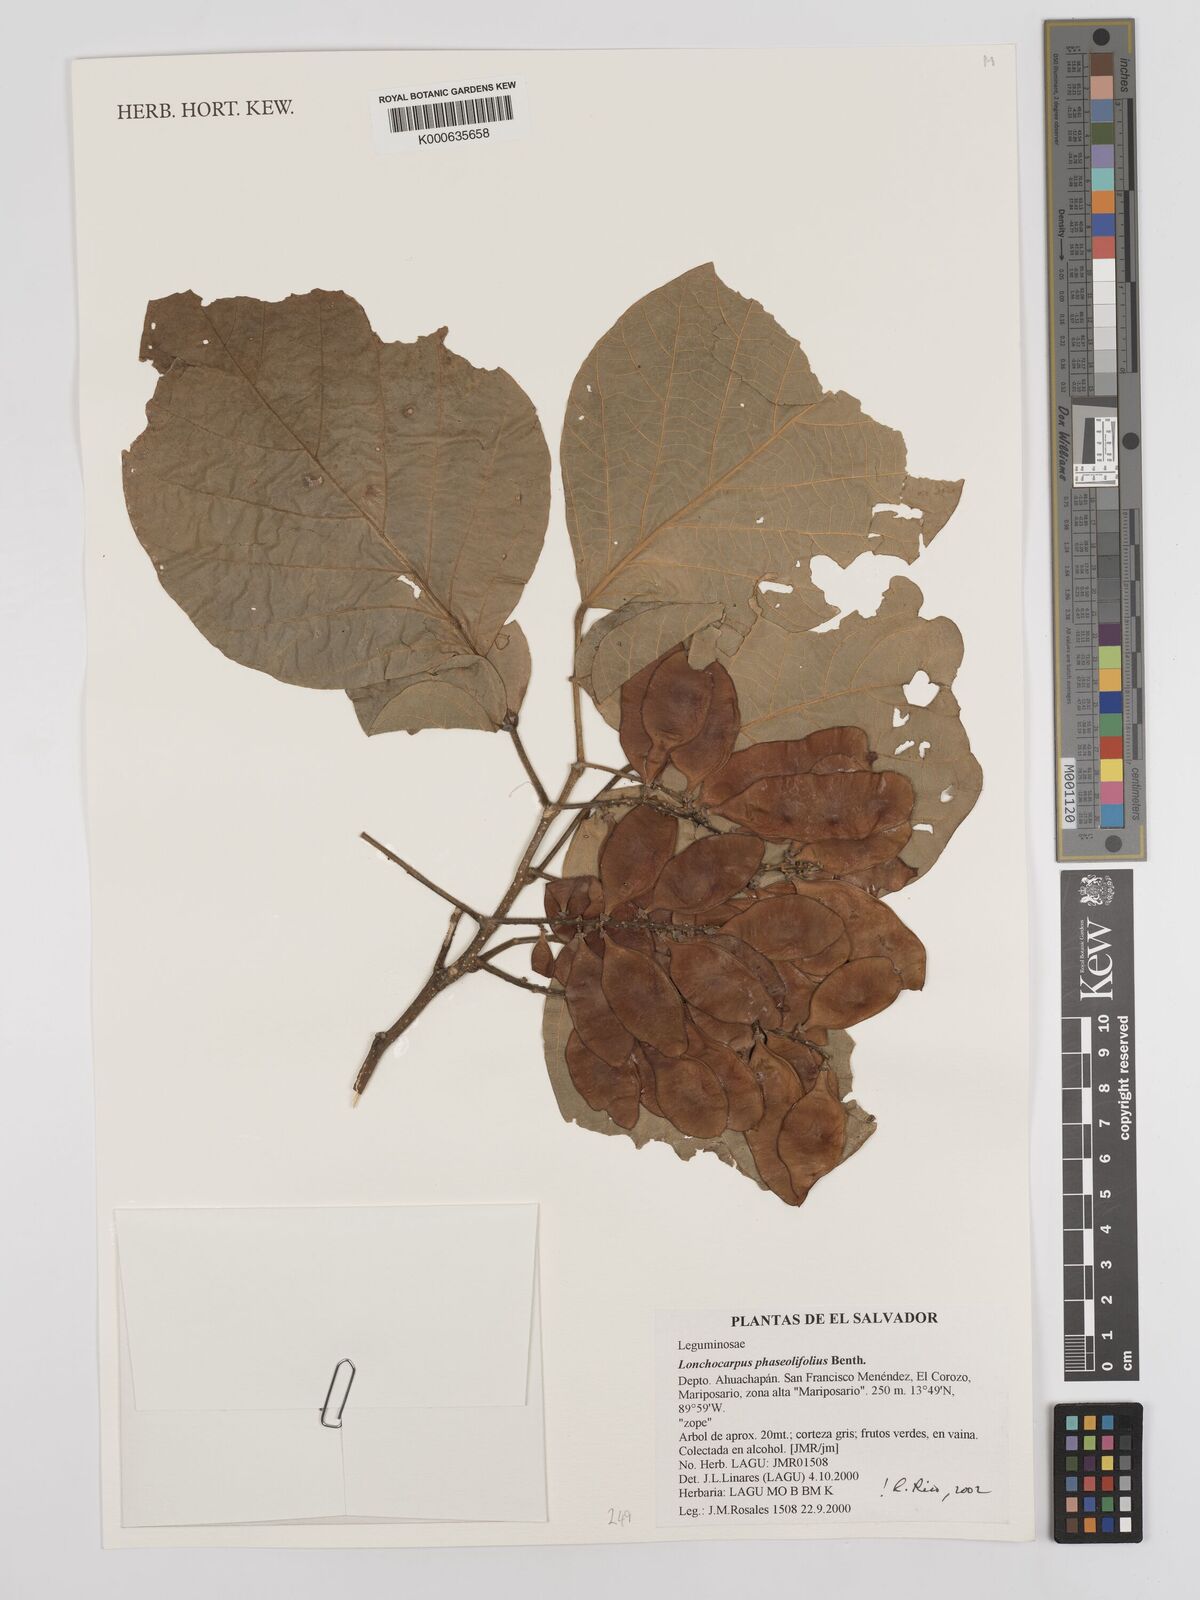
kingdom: Plantae
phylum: Tracheophyta
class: Magnoliopsida
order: Fabales
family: Fabaceae
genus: Lonchocarpus
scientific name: Lonchocarpus phaseolifolius
